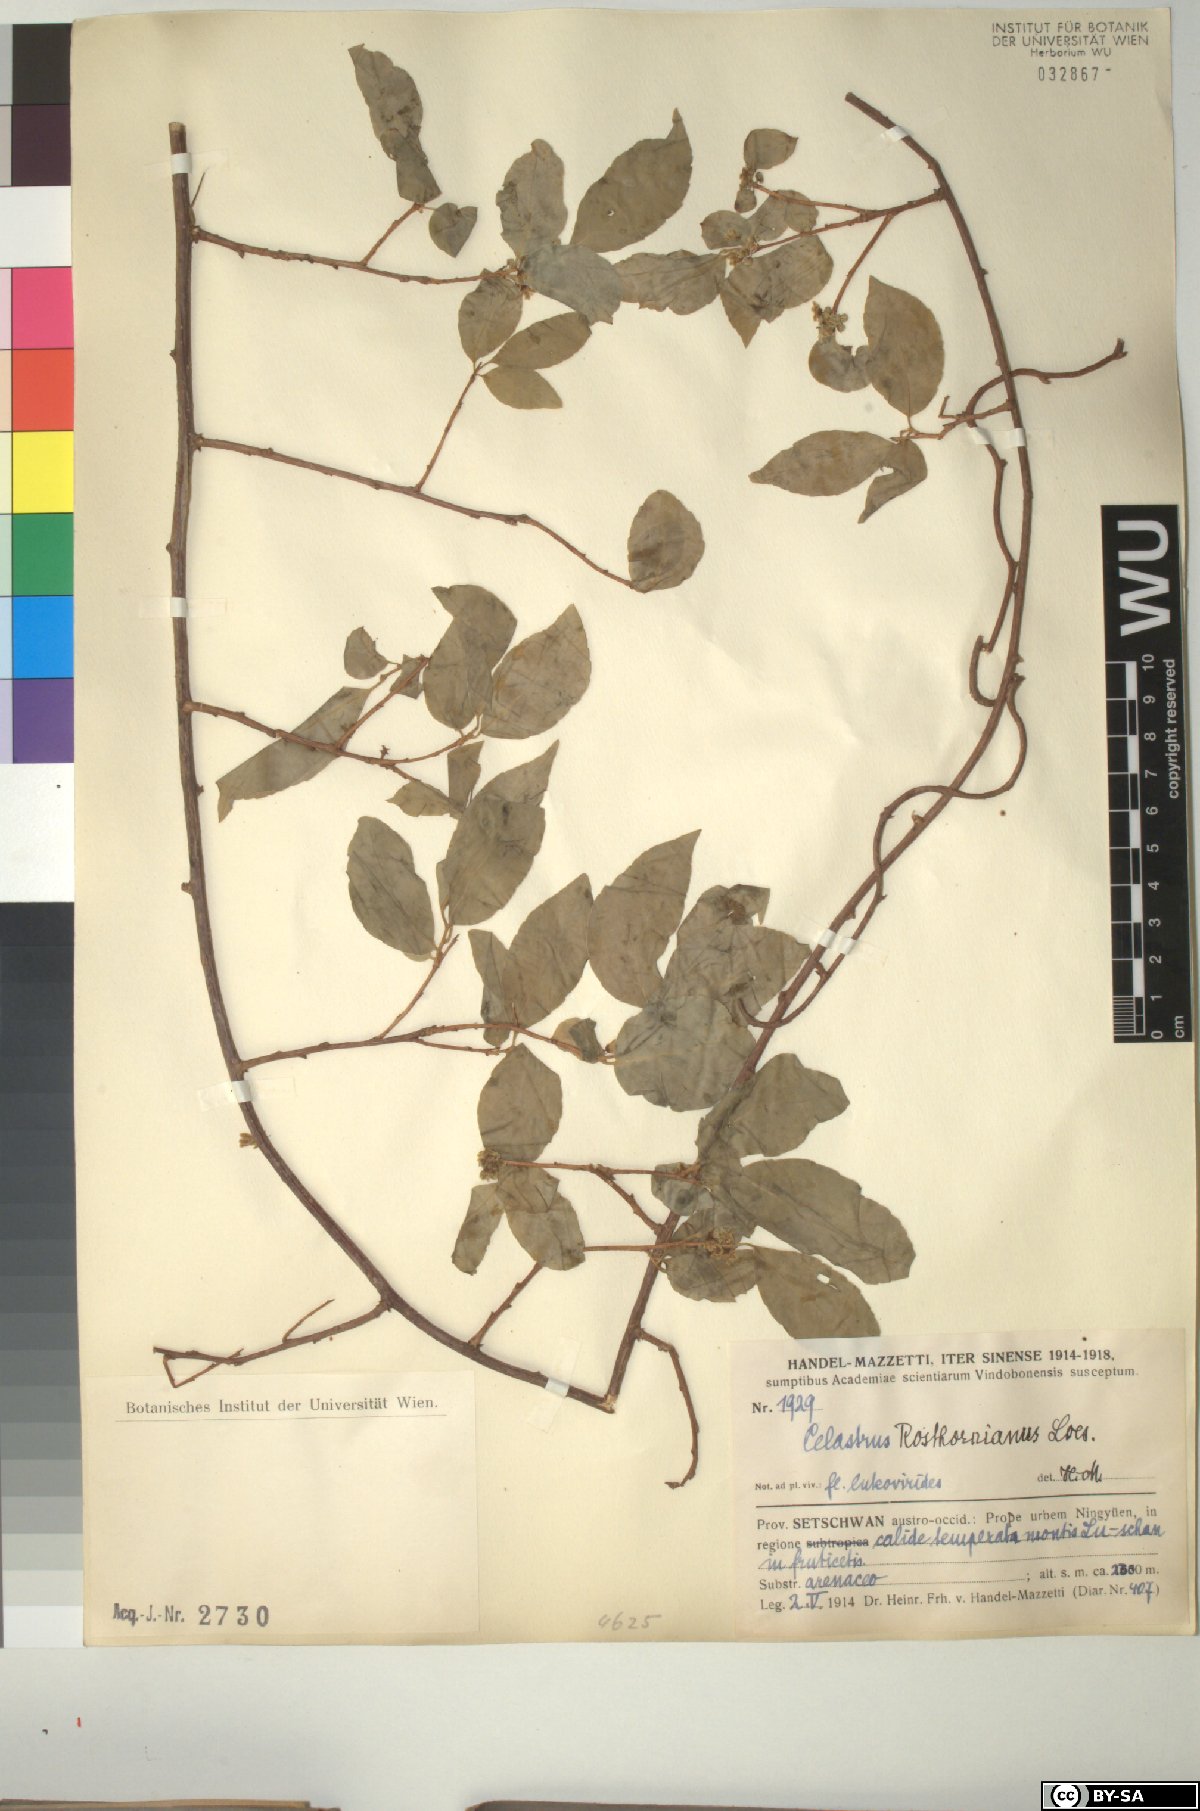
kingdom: Plantae
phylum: Tracheophyta
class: Magnoliopsida
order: Celastrales
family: Celastraceae
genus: Celastrus
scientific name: Celastrus rosthornianus
